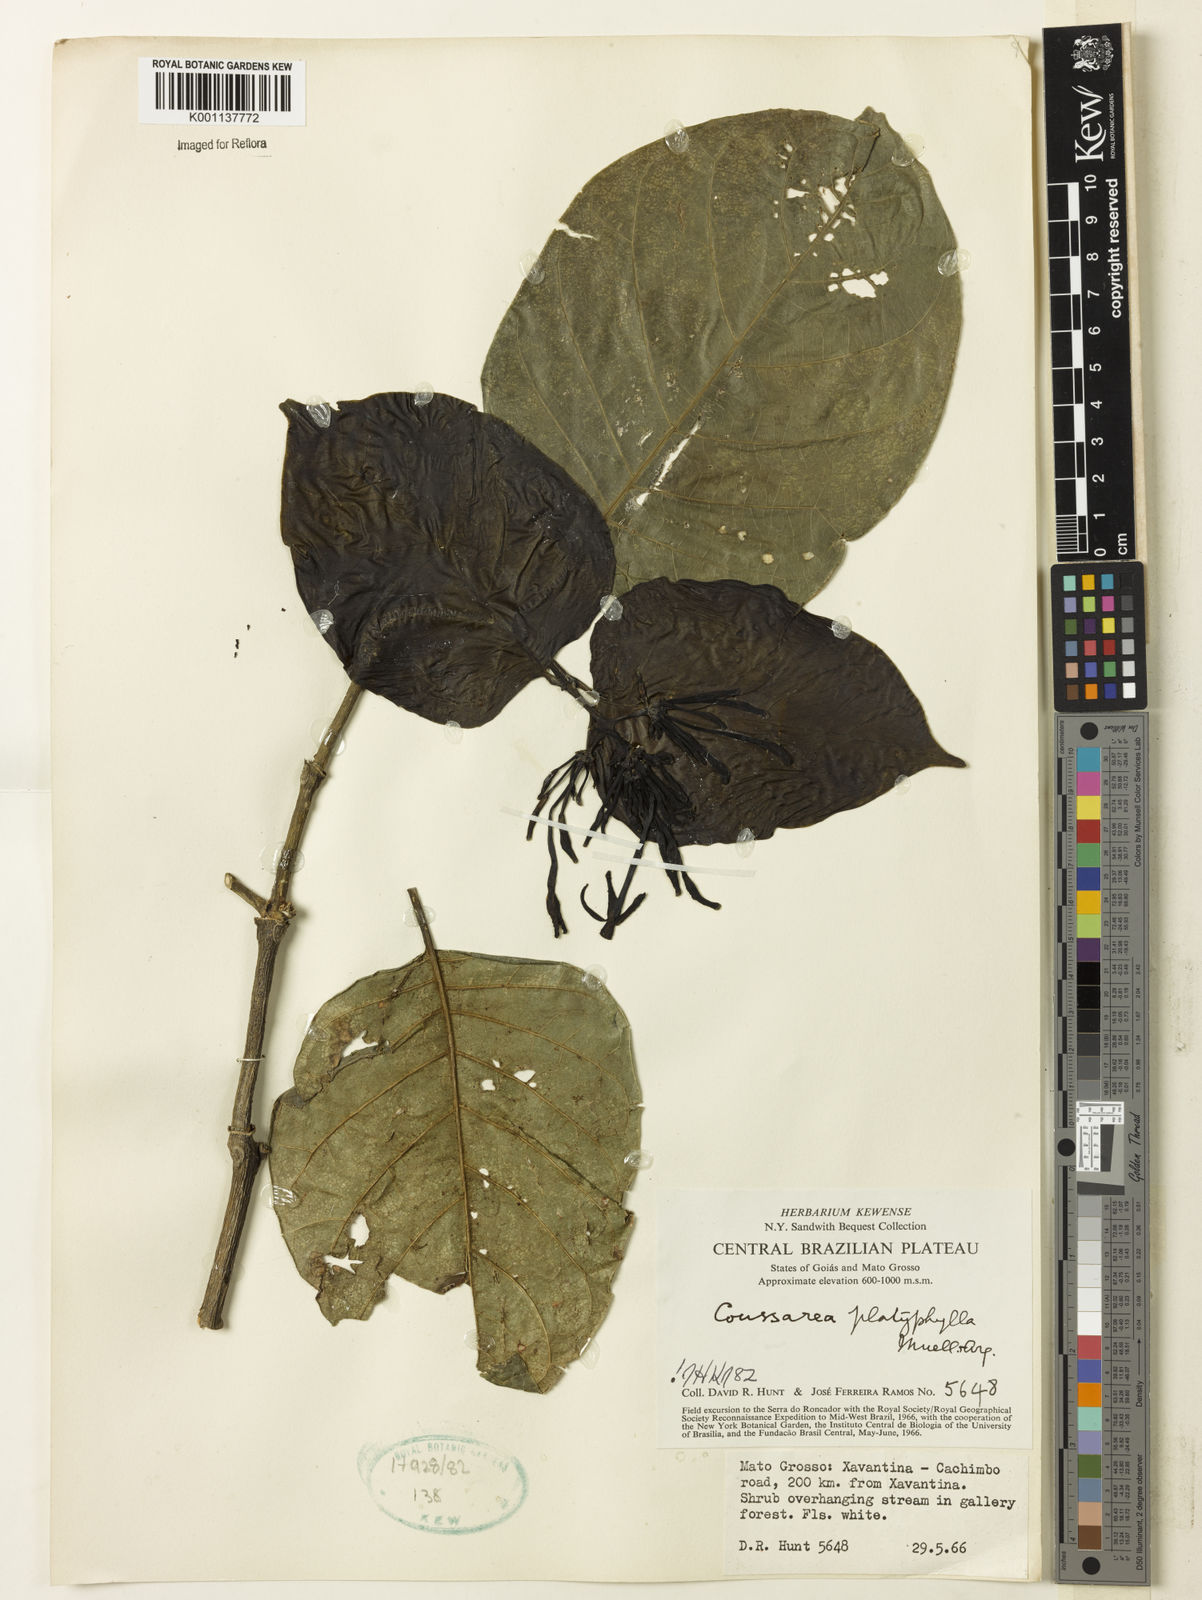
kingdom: Plantae
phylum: Tracheophyta
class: Magnoliopsida
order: Gentianales
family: Rubiaceae
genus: Coussarea
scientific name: Coussarea
